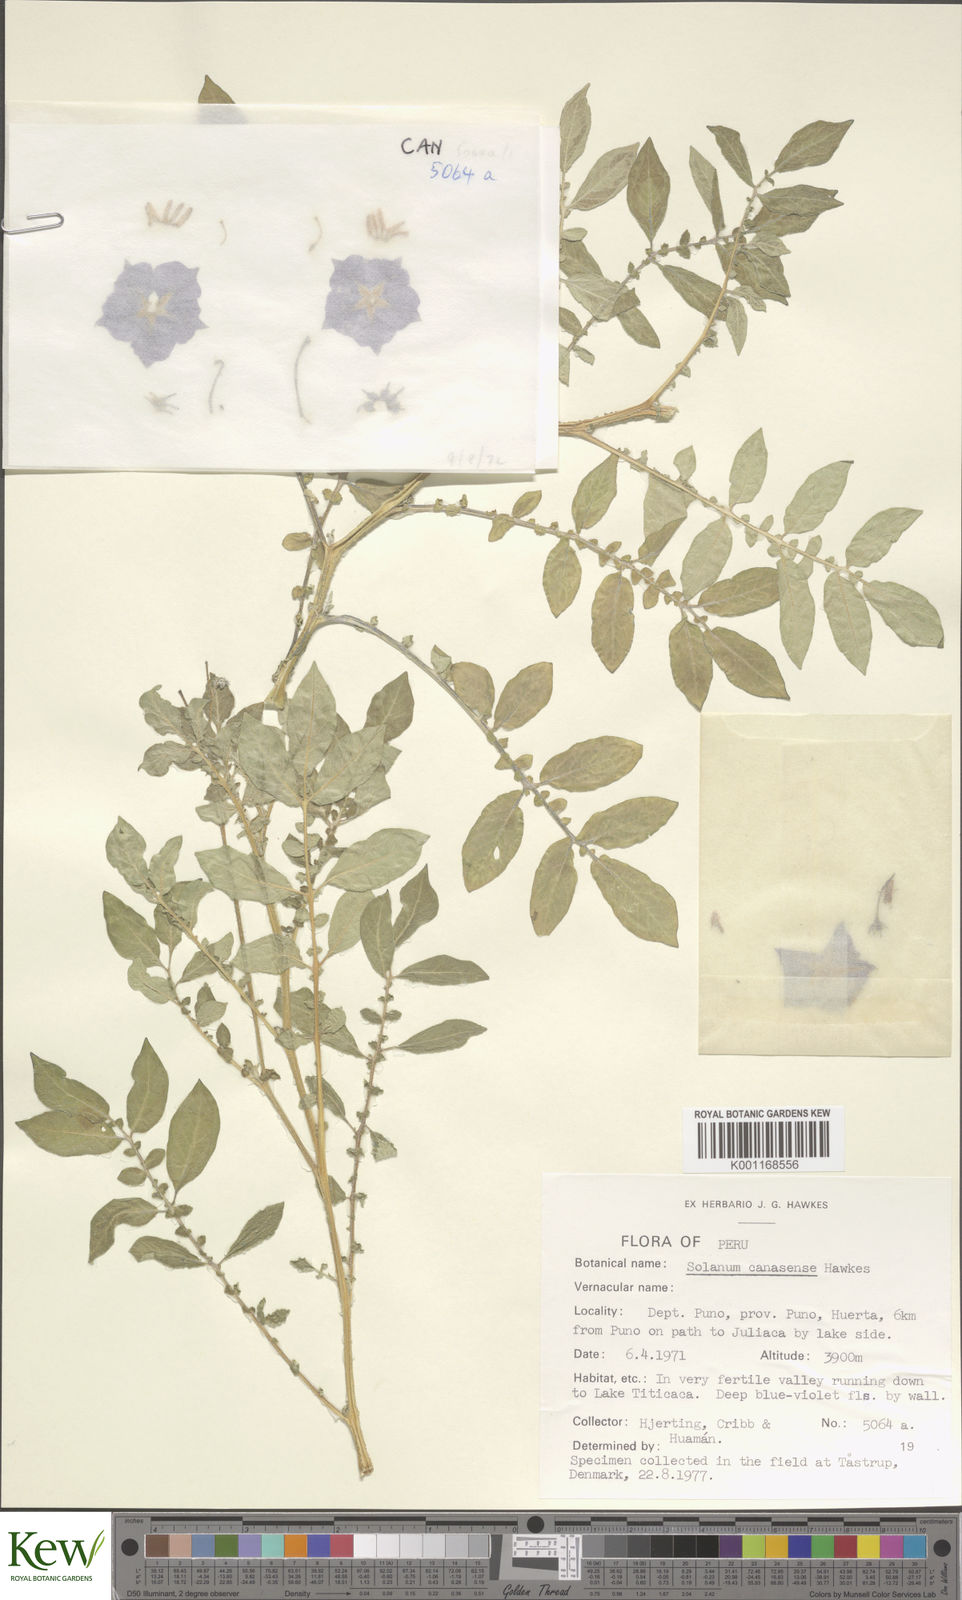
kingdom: Plantae
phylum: Tracheophyta
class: Magnoliopsida
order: Solanales
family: Solanaceae
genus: Solanum
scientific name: Solanum candolleanum
